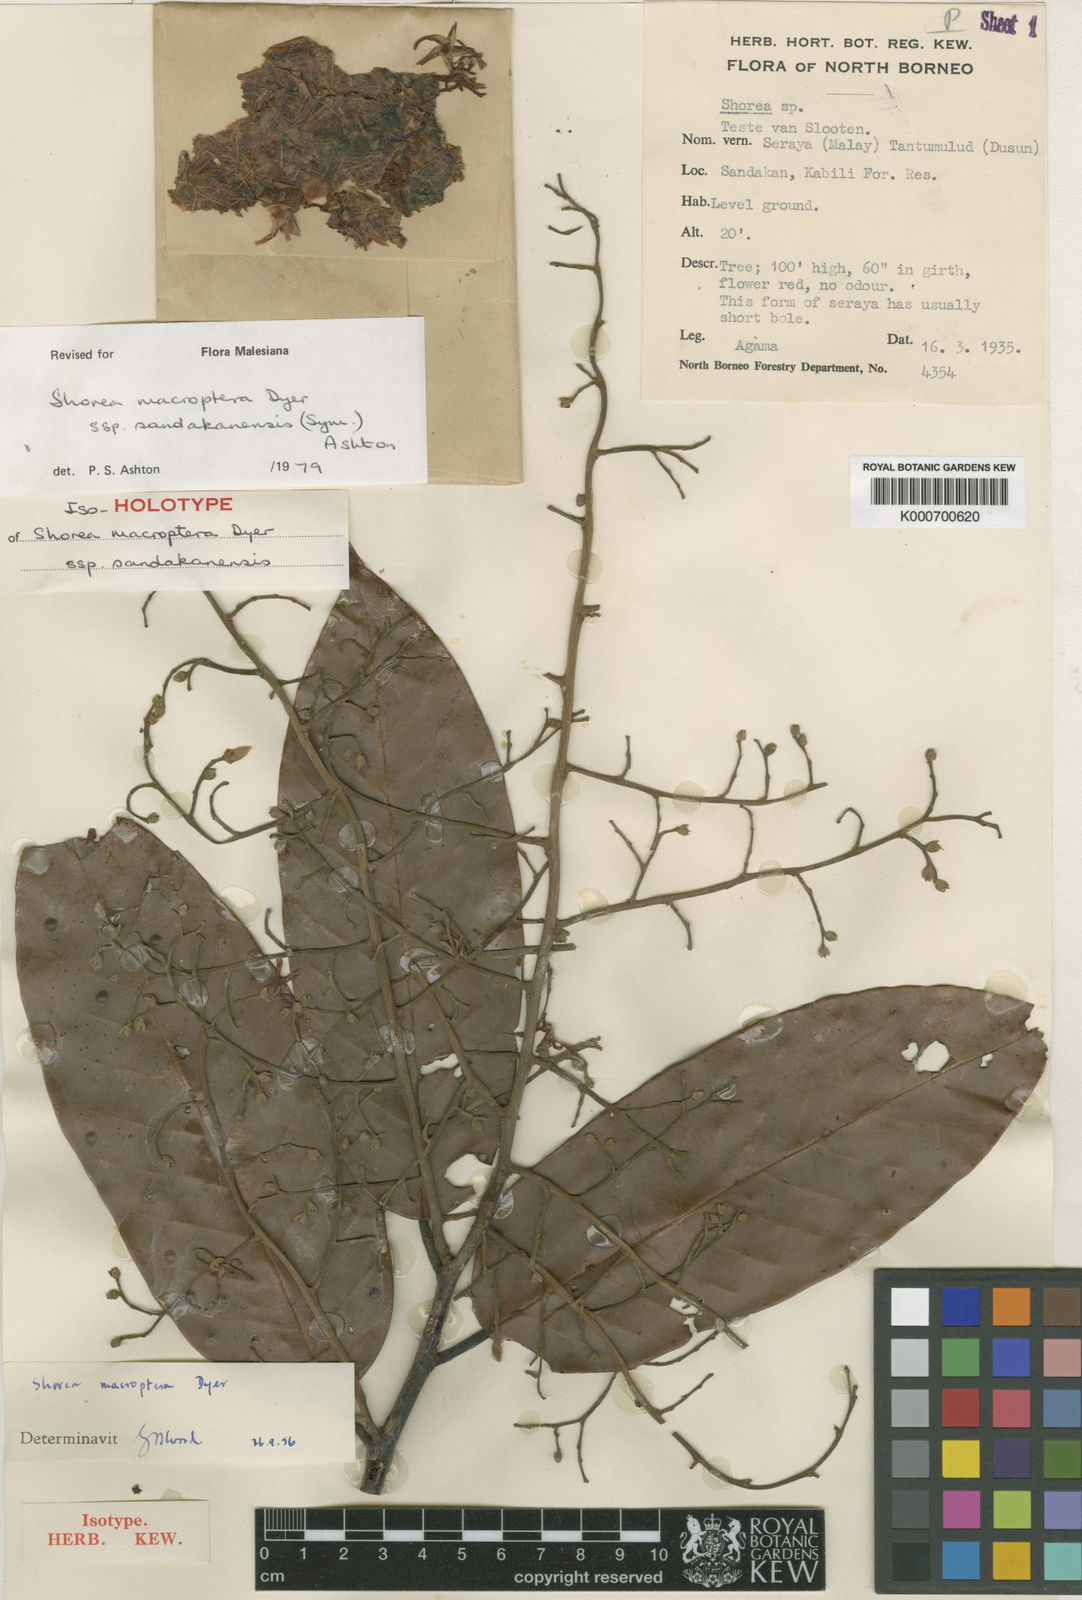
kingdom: Plantae
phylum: Tracheophyta
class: Magnoliopsida
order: Malvales
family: Dipterocarpaceae
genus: Shorea
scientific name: Shorea macroptera
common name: Light red meranti
